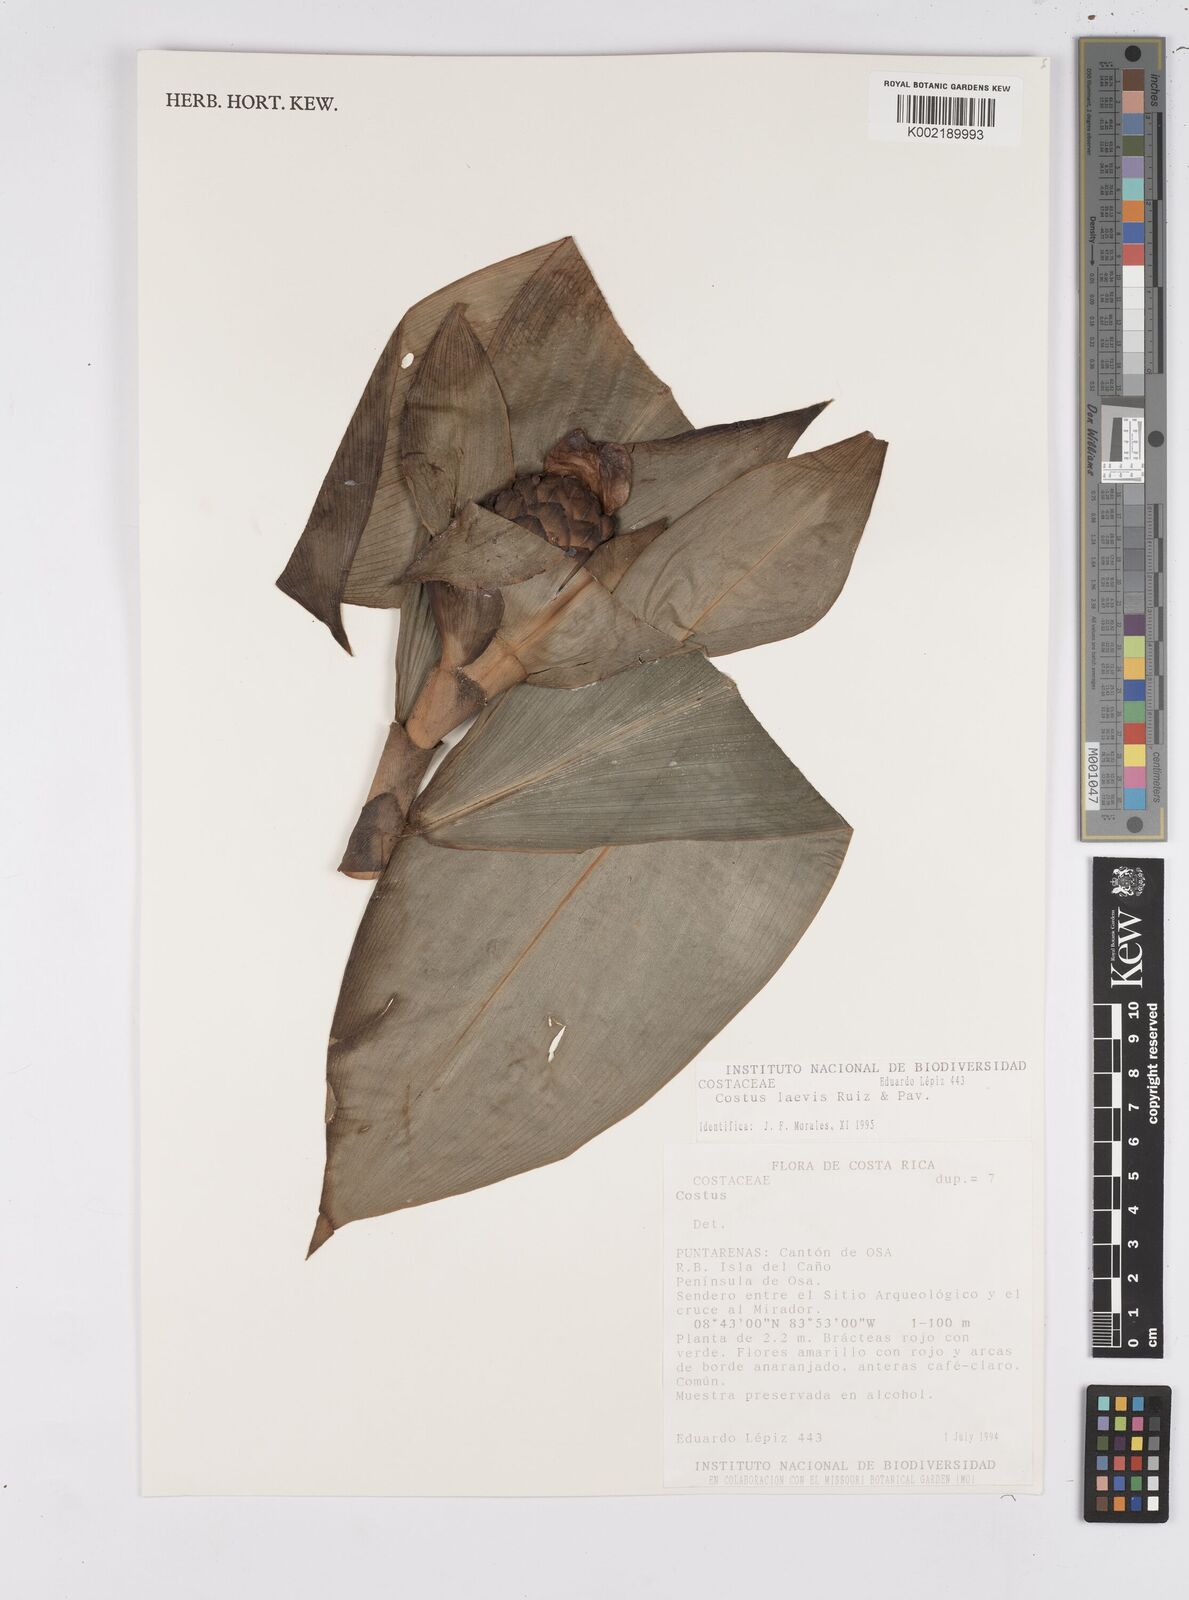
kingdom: Plantae
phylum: Tracheophyta
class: Liliopsida
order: Zingiberales
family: Costaceae
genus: Costus
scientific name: Costus laevis
